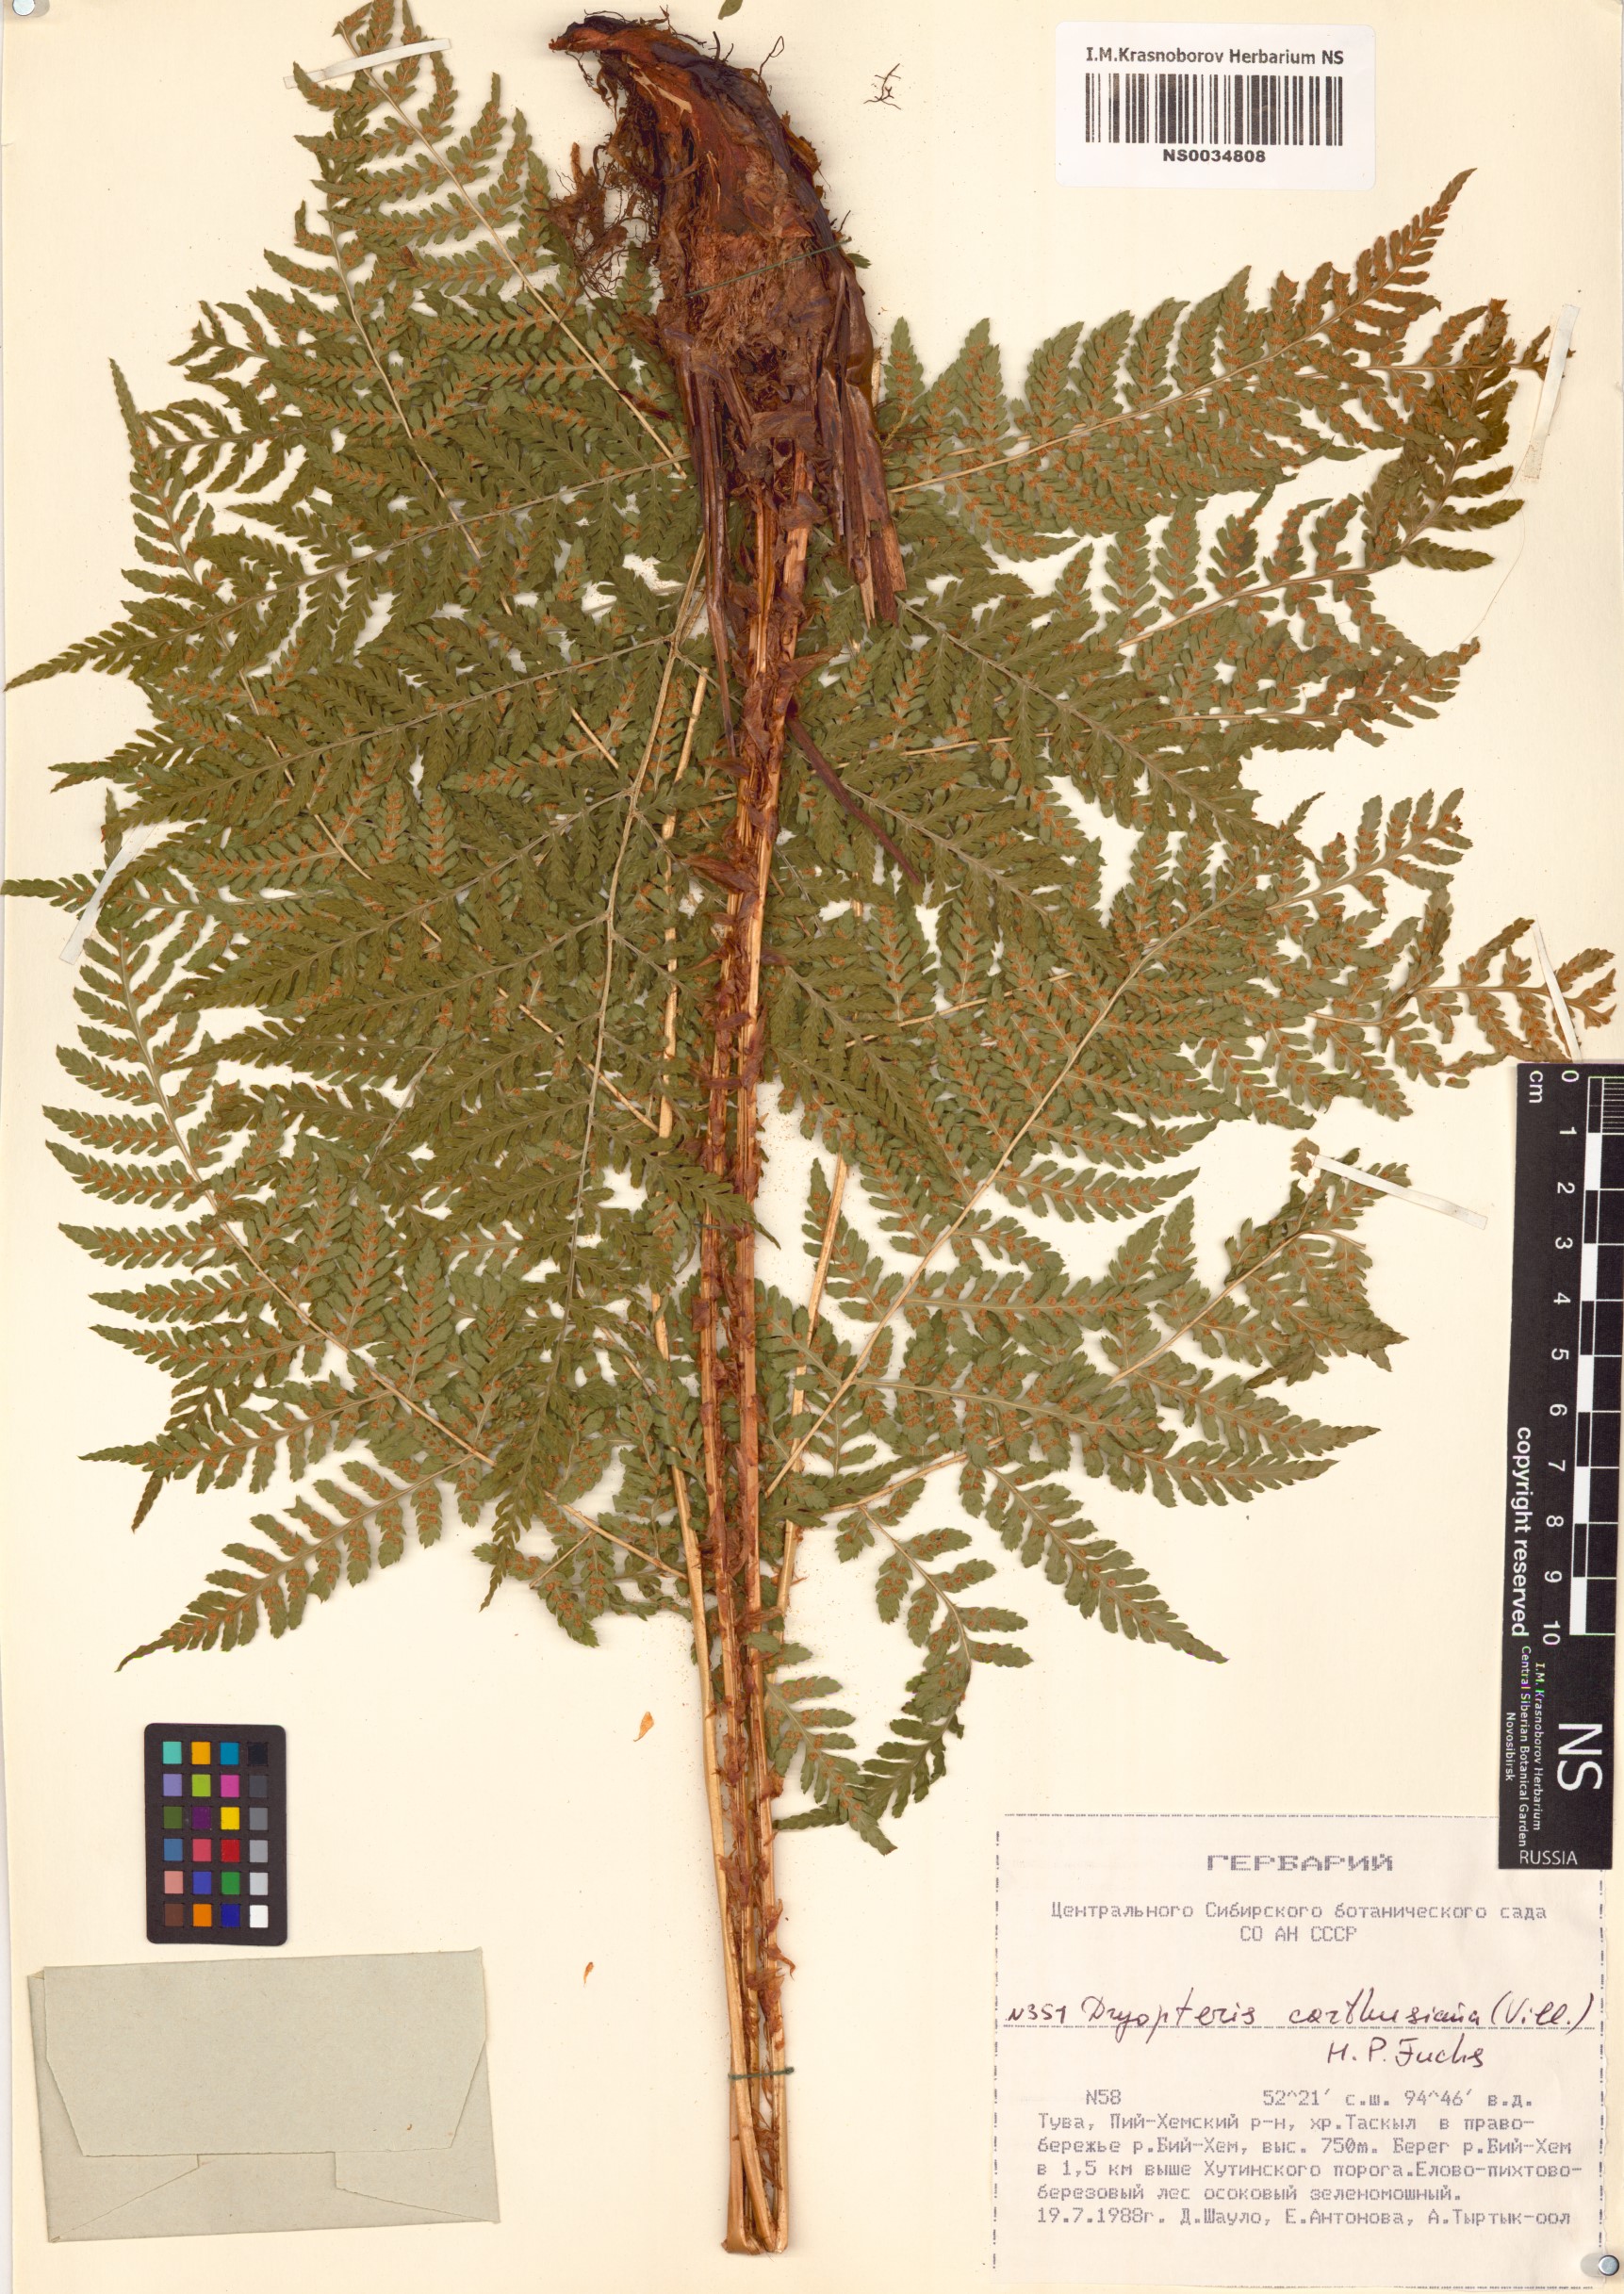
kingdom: Plantae
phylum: Tracheophyta
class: Polypodiopsida
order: Polypodiales
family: Dryopteridaceae
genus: Dryopteris
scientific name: Dryopteris carthusiana
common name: Narrow buckler-fern
